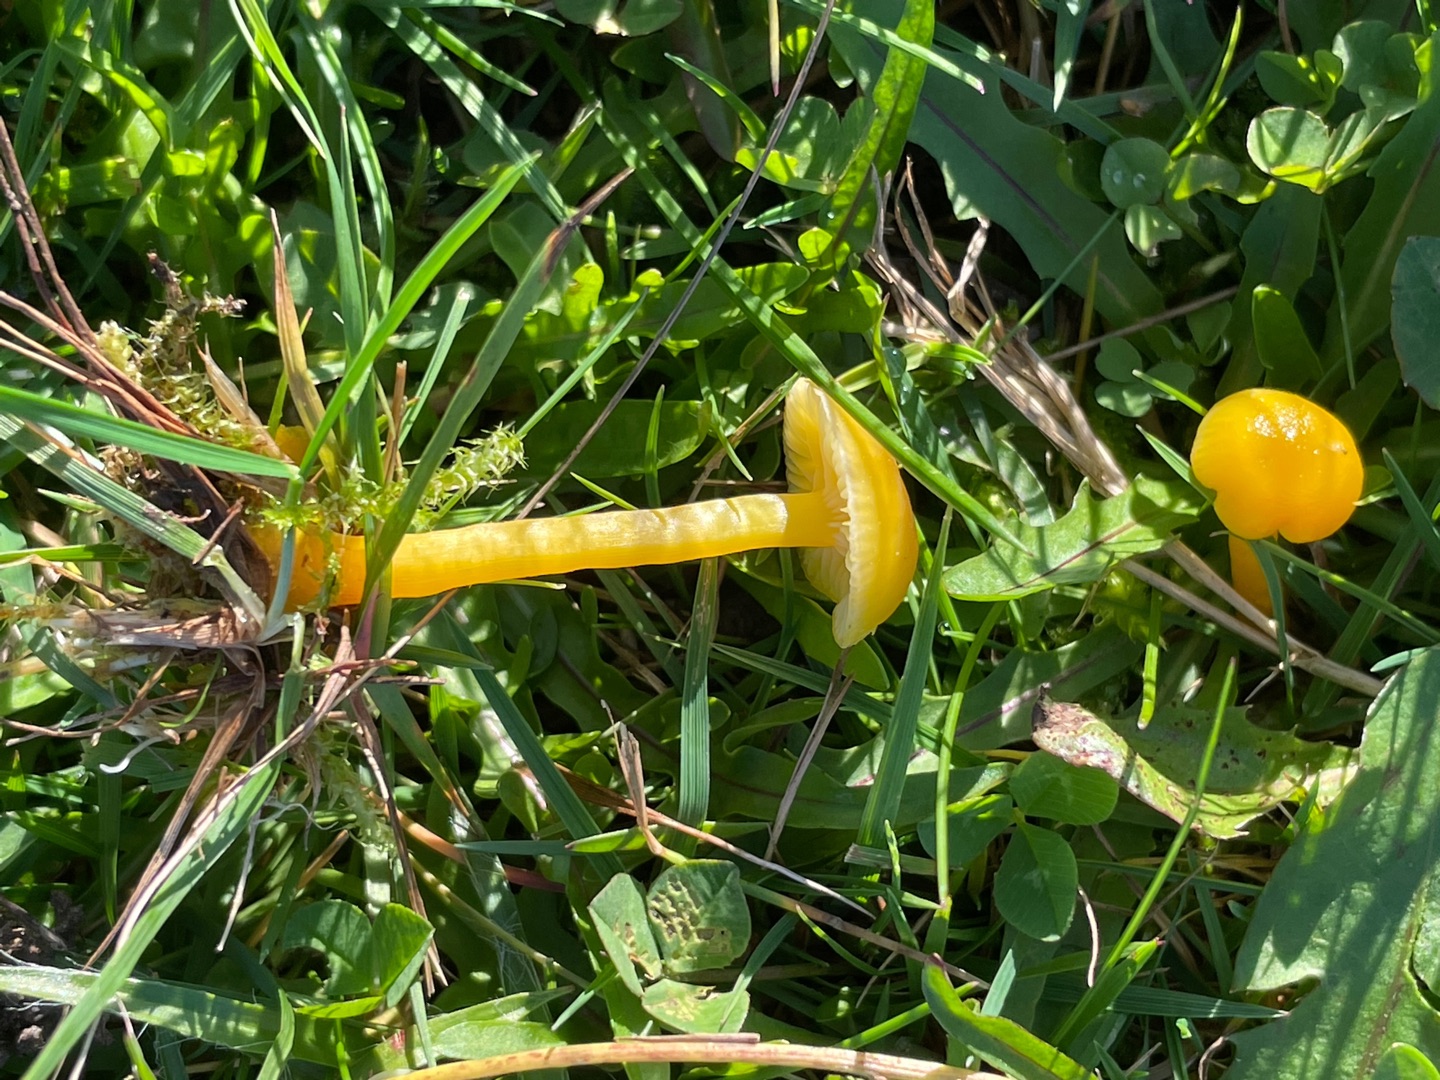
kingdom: Fungi
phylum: Basidiomycota
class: Agaricomycetes
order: Agaricales
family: Hygrophoraceae
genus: Hygrocybe
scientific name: Hygrocybe ceracea
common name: Voksgul vokshat
